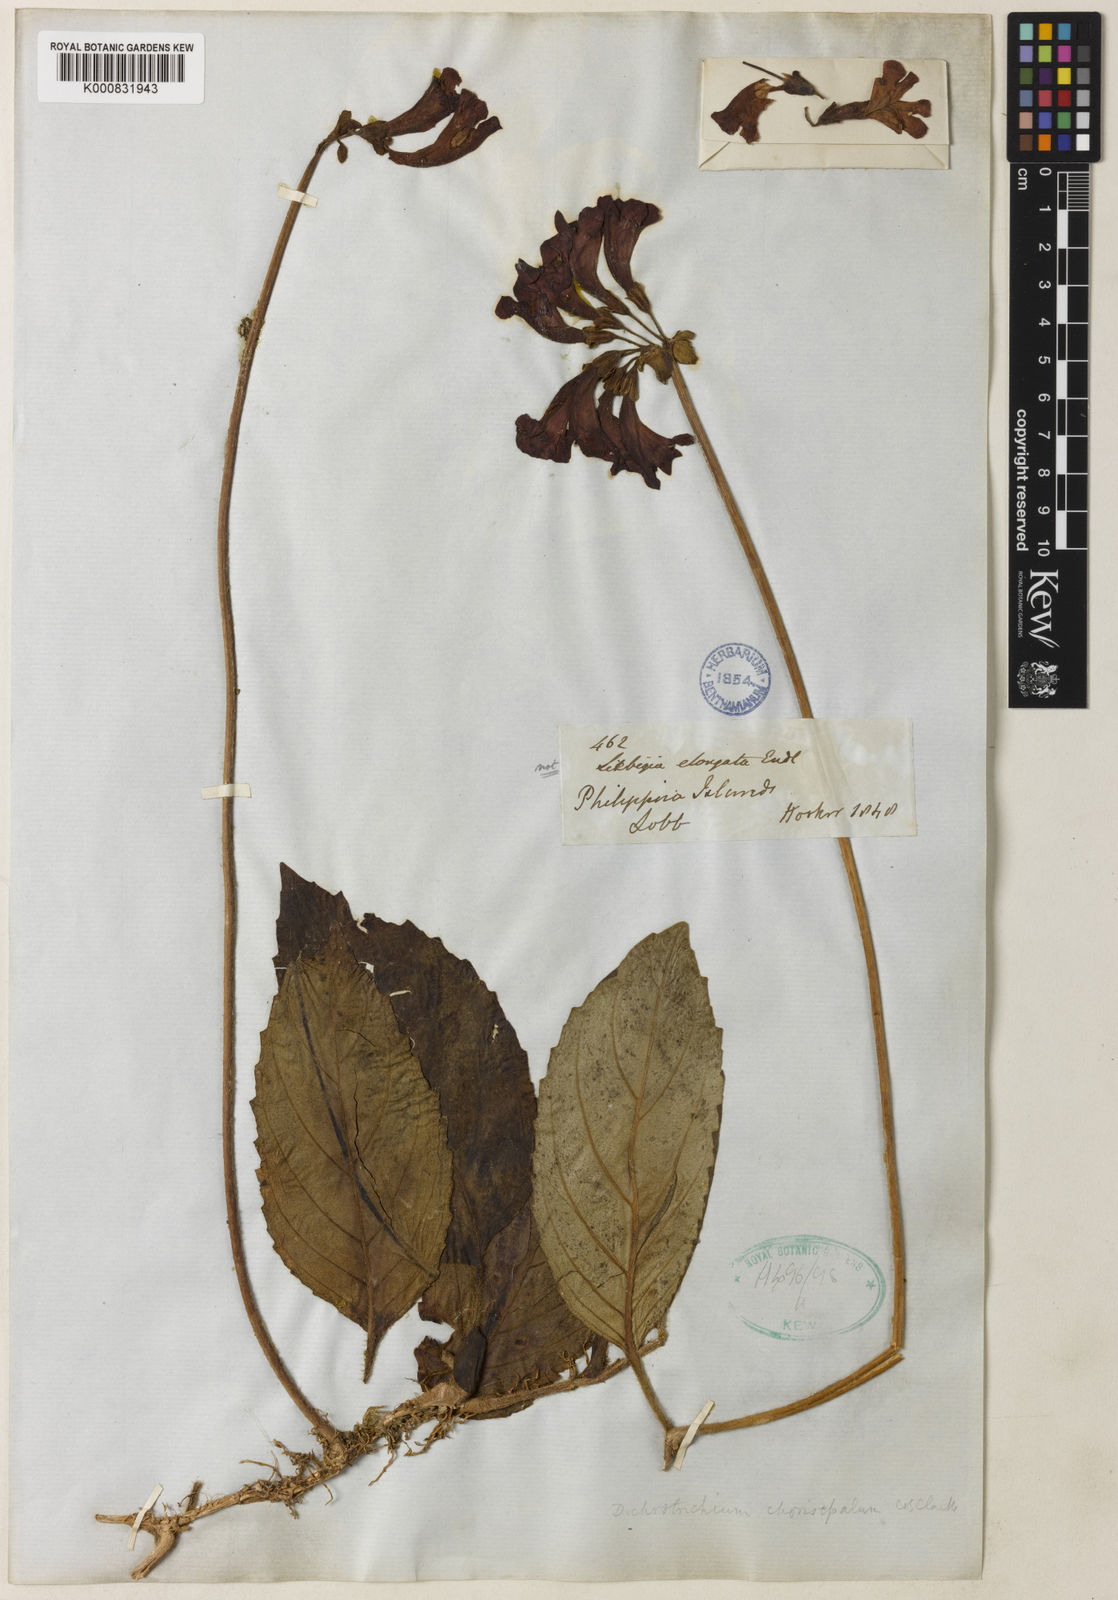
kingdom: Plantae
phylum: Tracheophyta
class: Magnoliopsida
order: Lamiales
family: Gesneriaceae
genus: Agalmyla
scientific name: Agalmyla chorisepala
